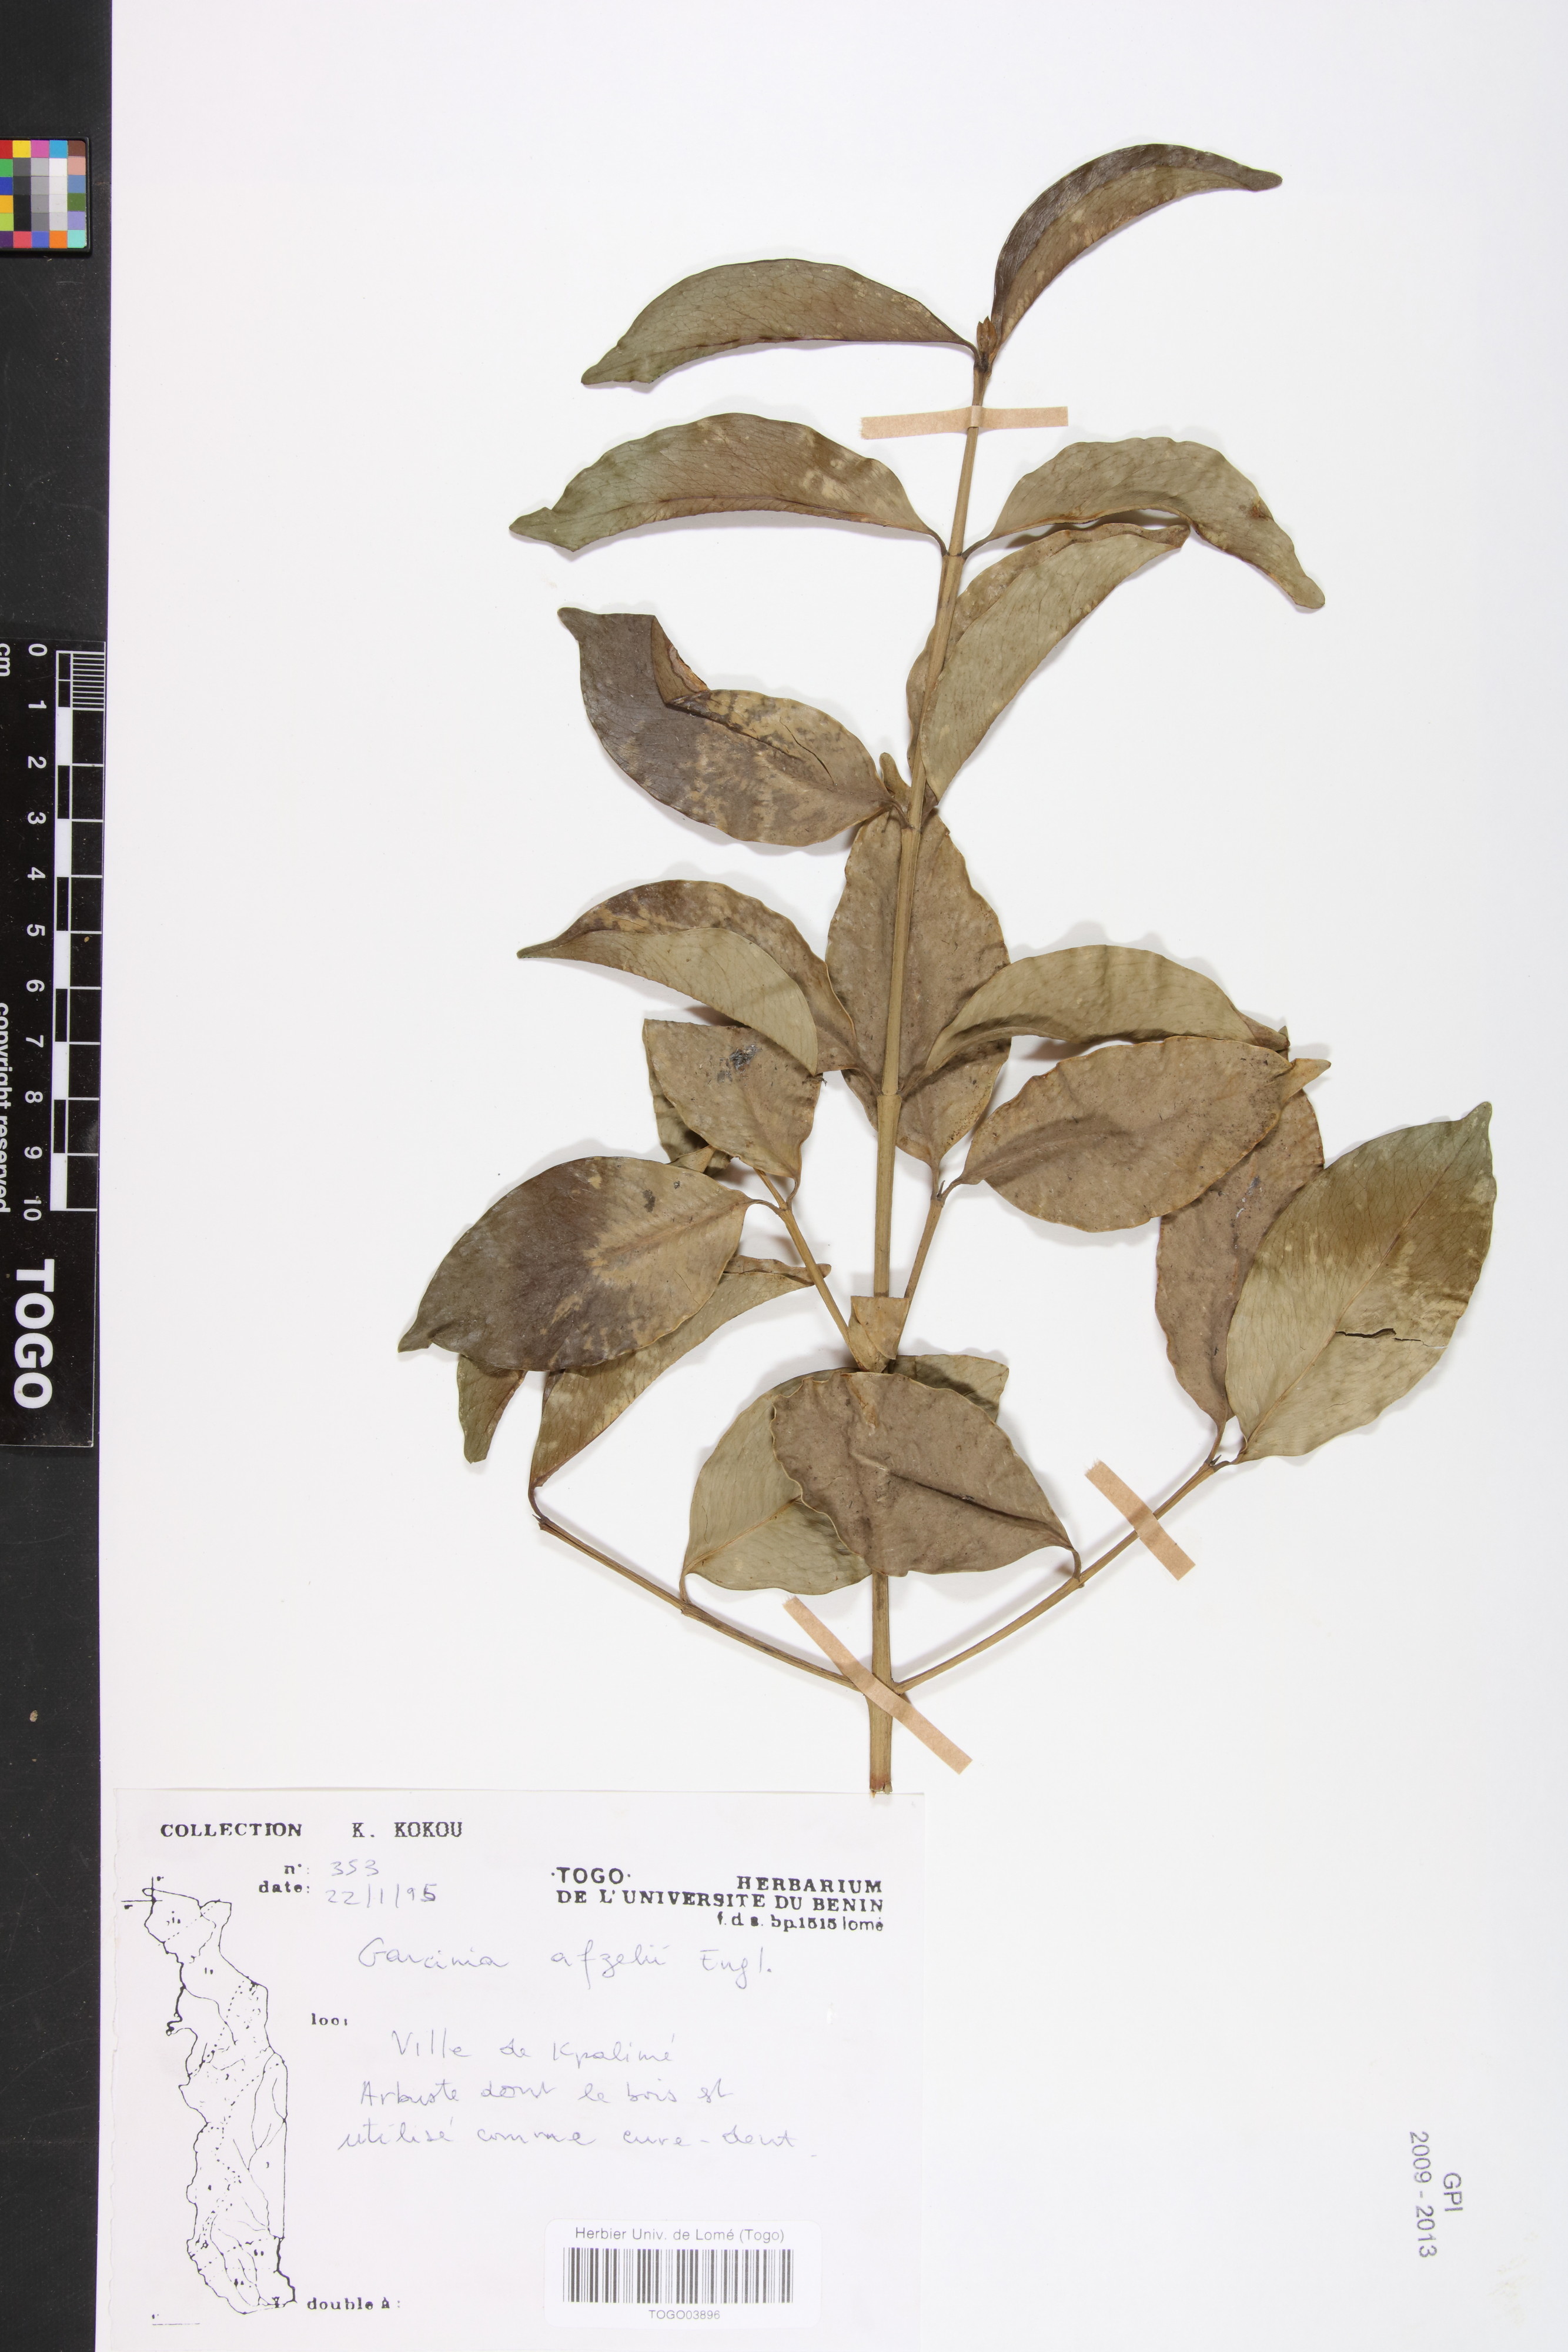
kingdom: Plantae
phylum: Tracheophyta
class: Magnoliopsida
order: Malpighiales
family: Clusiaceae
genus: Garcinia
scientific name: Garcinia afzelii
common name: Bitter-kola
